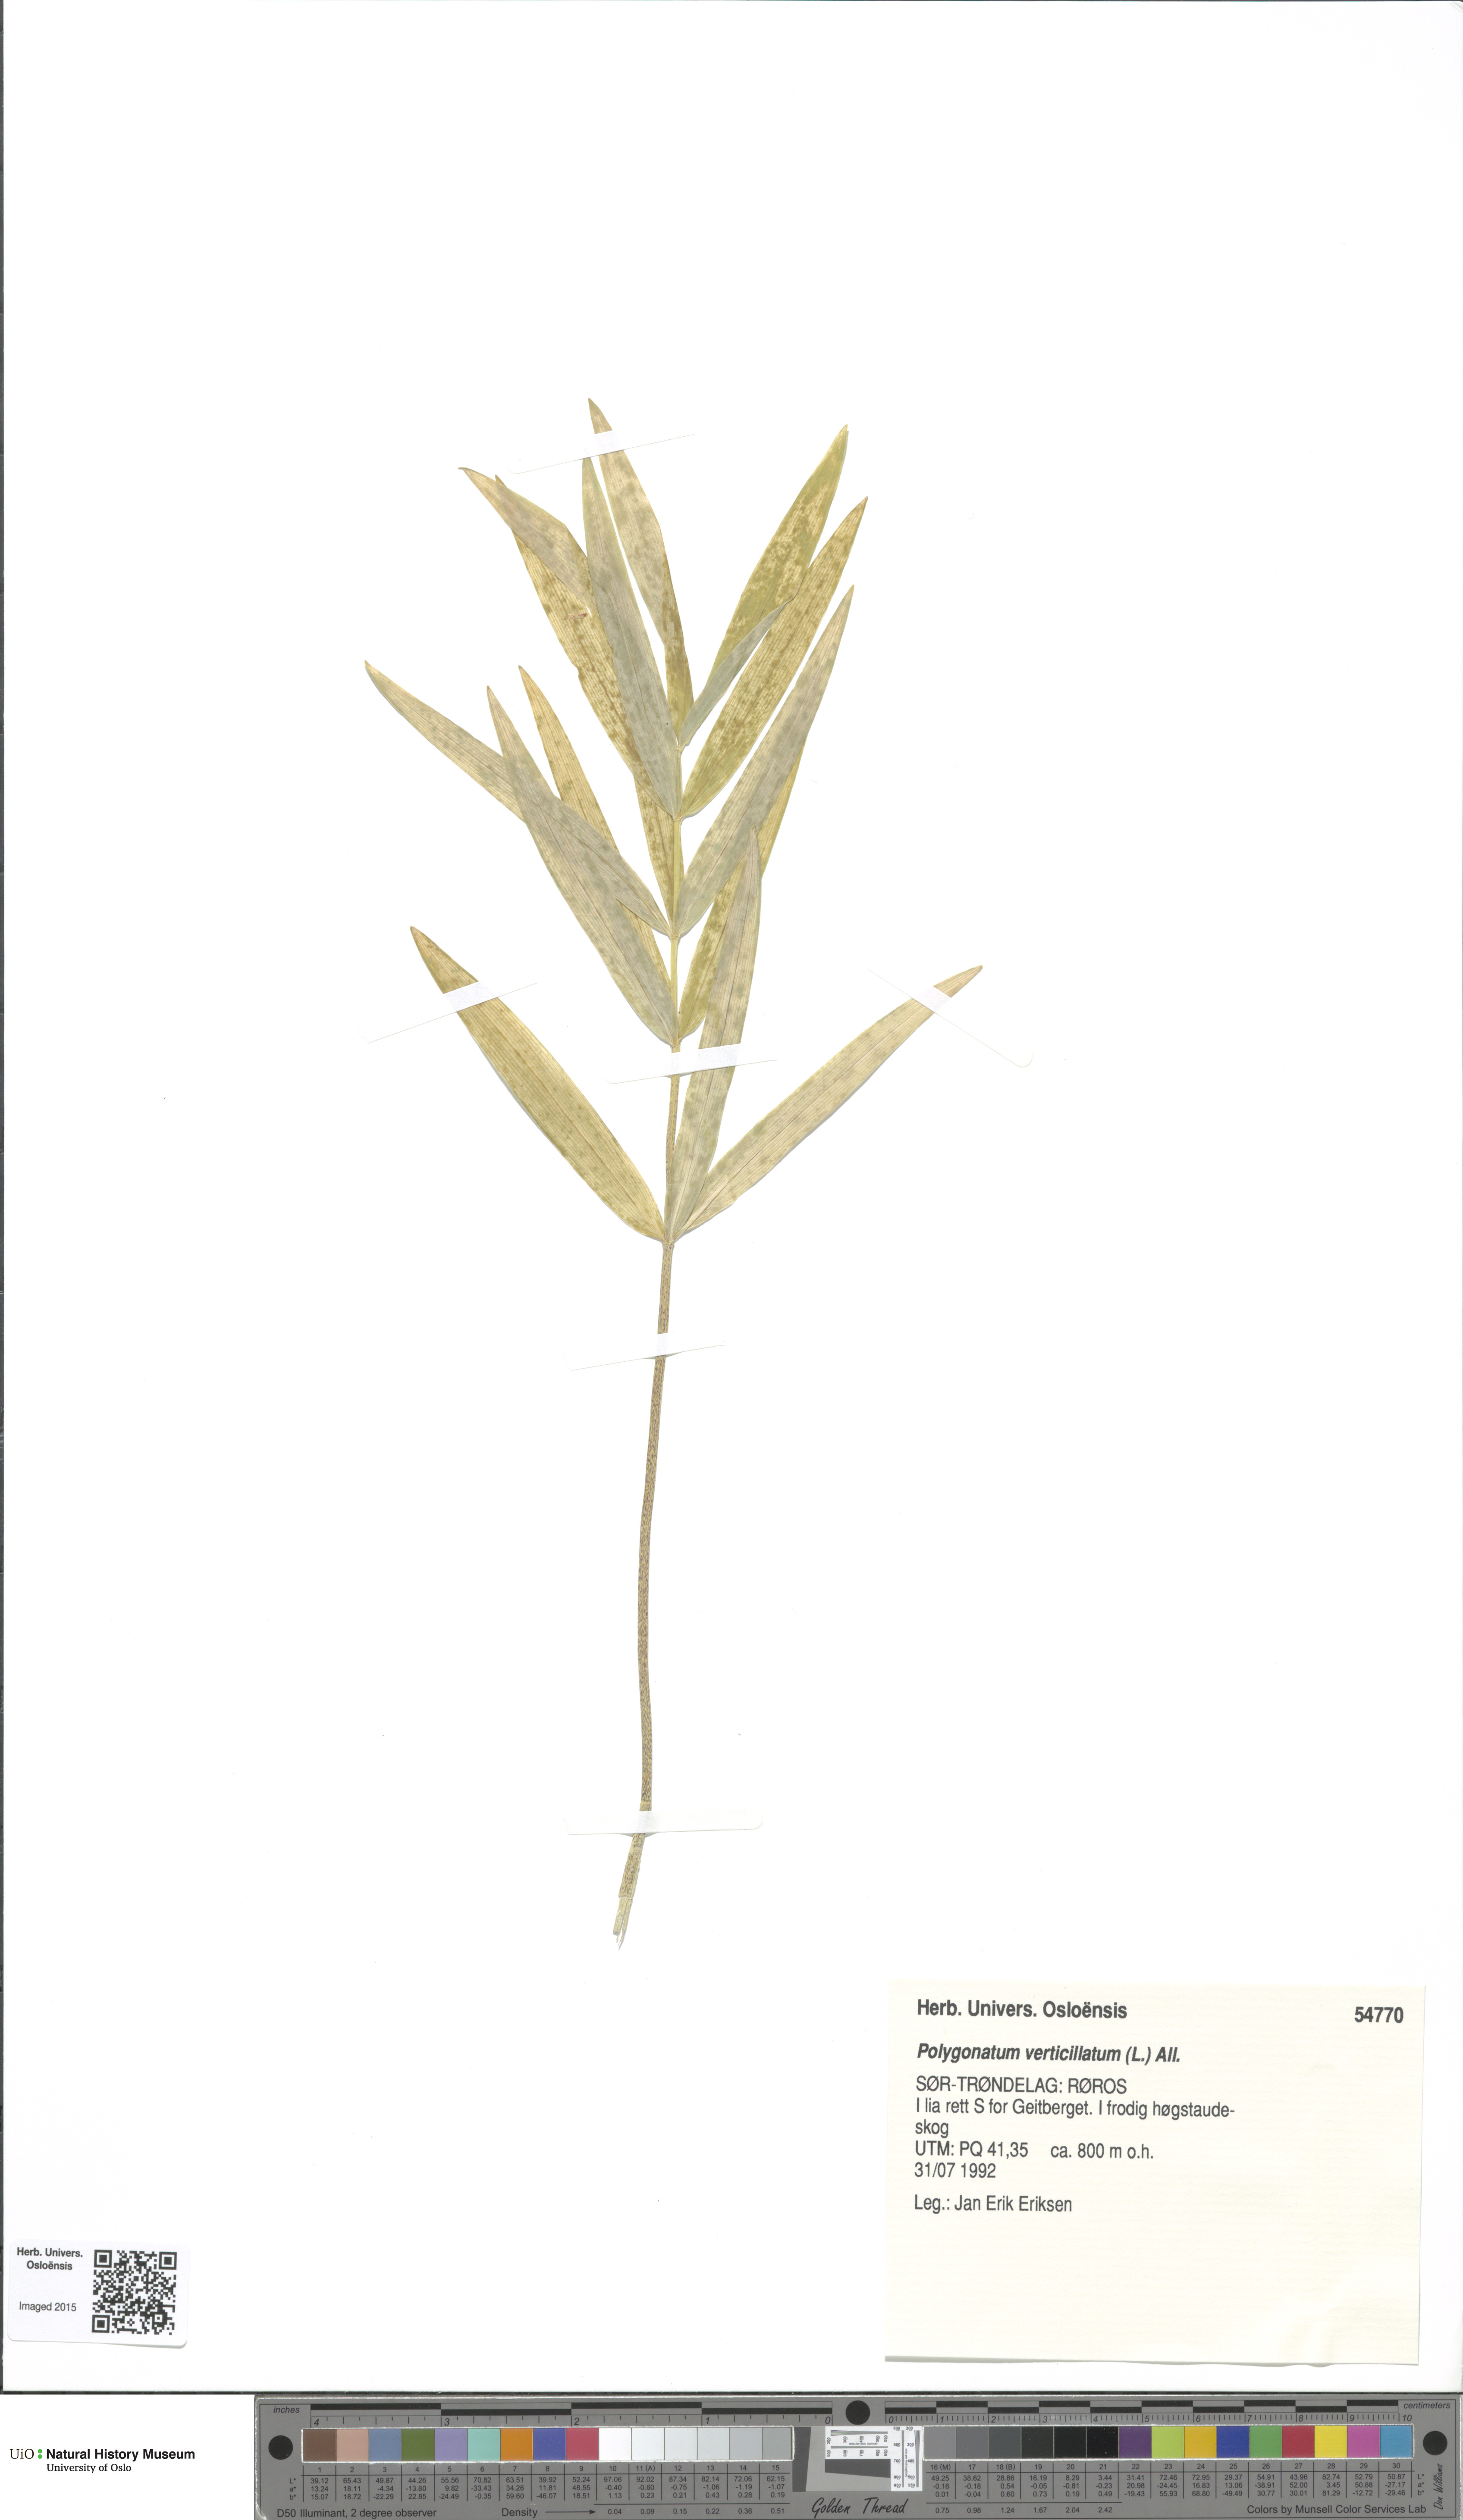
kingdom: Plantae
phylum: Tracheophyta
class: Liliopsida
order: Asparagales
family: Asparagaceae
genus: Polygonatum
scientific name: Polygonatum verticillatum
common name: Whorled solomon's-seal
